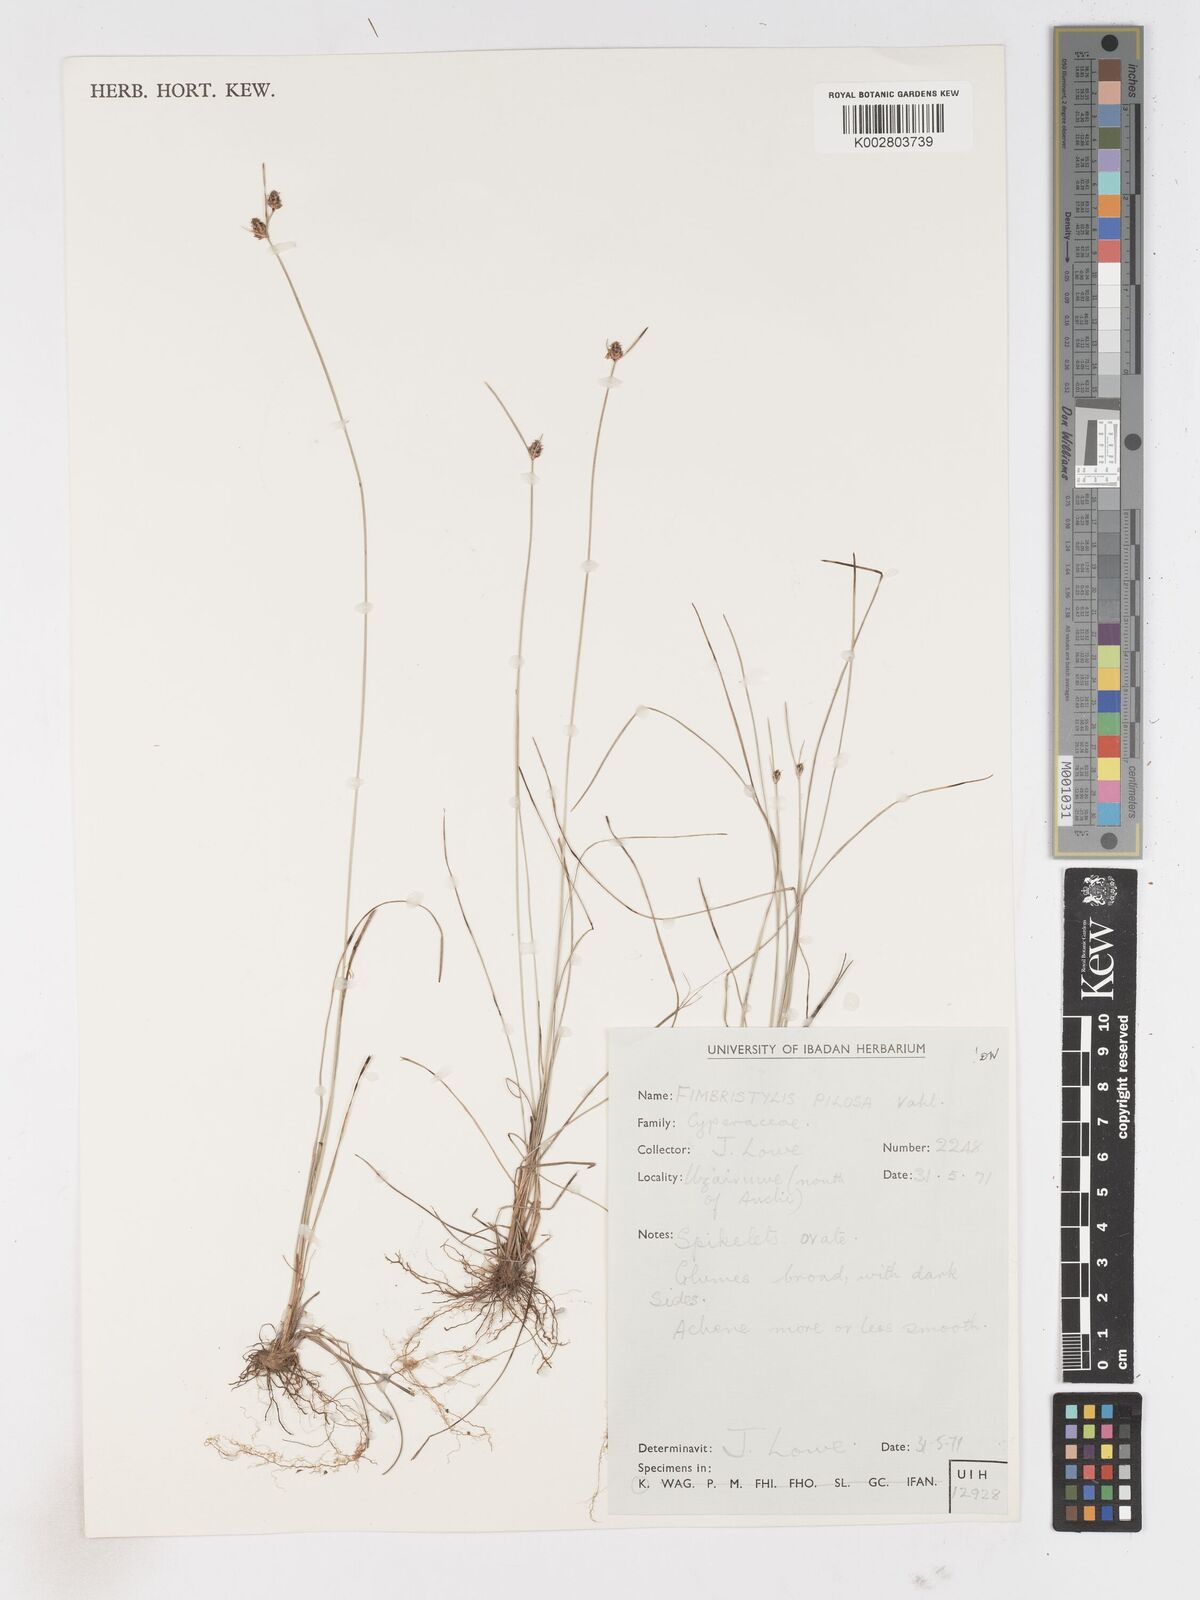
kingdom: Plantae
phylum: Tracheophyta
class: Liliopsida
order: Poales
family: Cyperaceae
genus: Fimbristylis
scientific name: Fimbristylis pilosa
